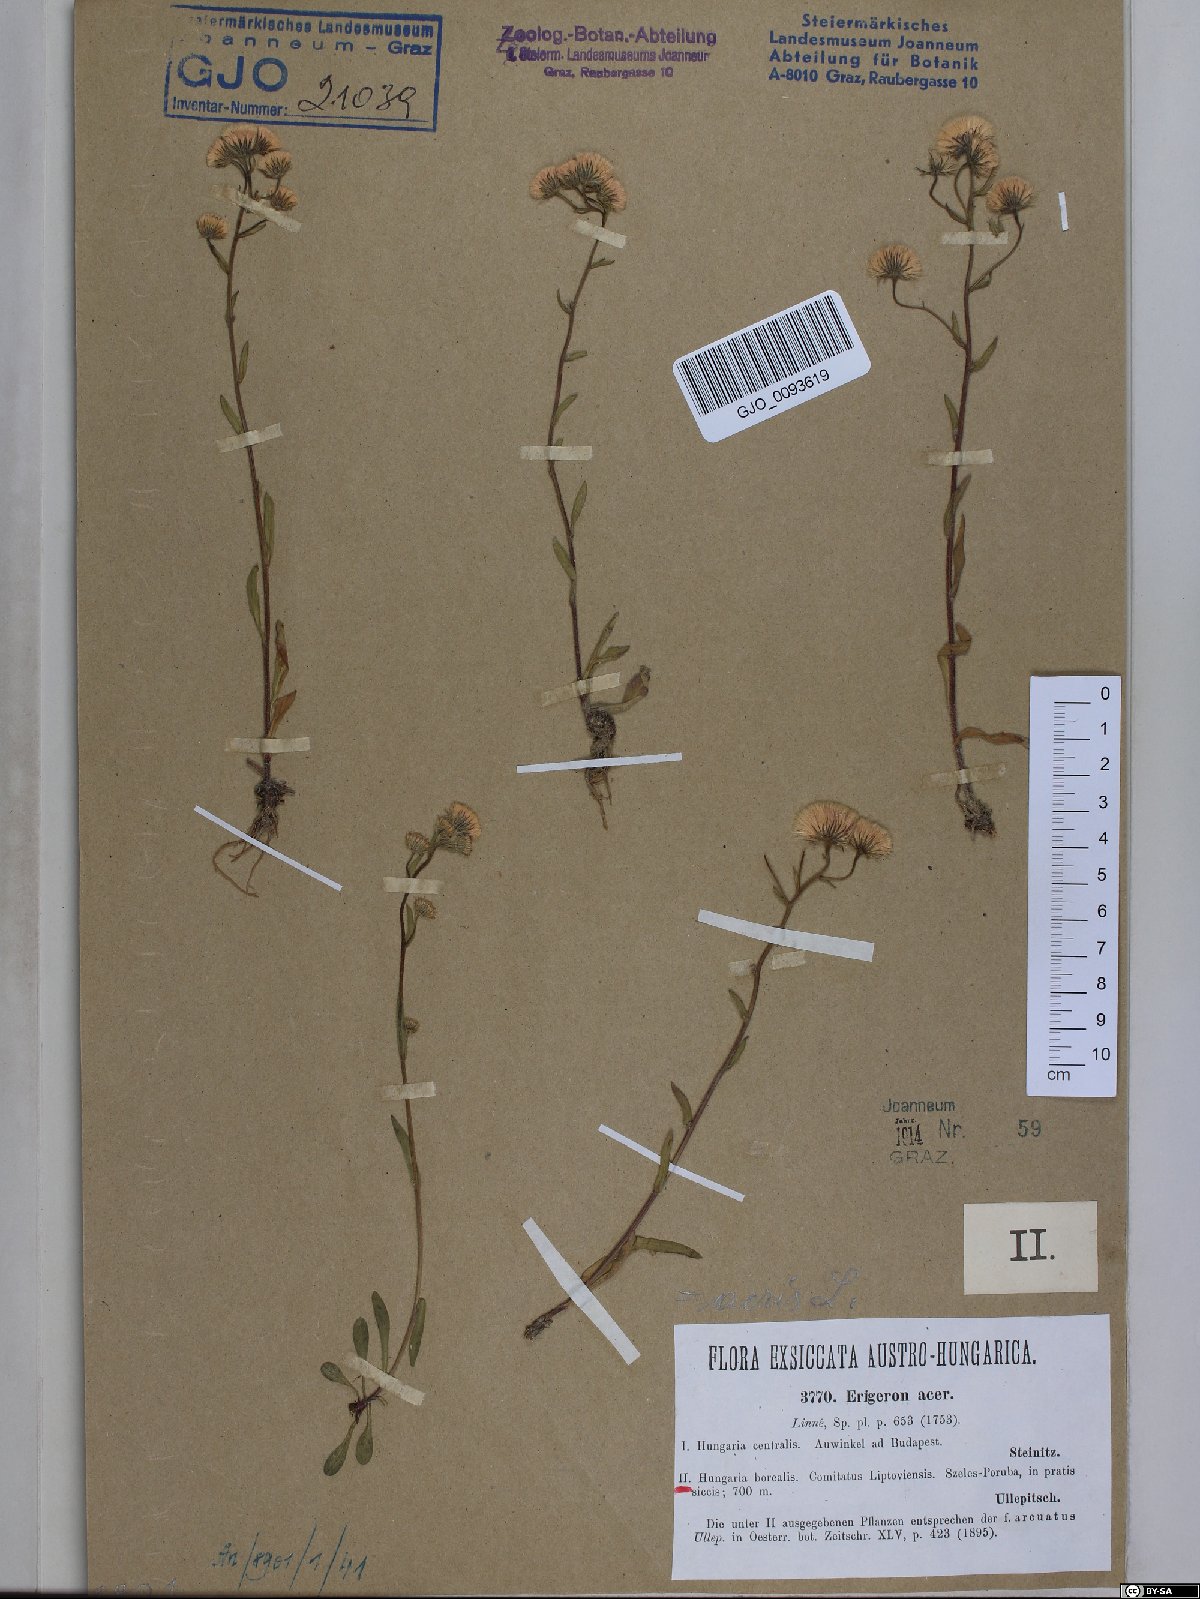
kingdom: Plantae
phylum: Tracheophyta
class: Magnoliopsida
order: Asterales
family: Asteraceae
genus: Erigeron
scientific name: Erigeron acris
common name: Blue fleabane
